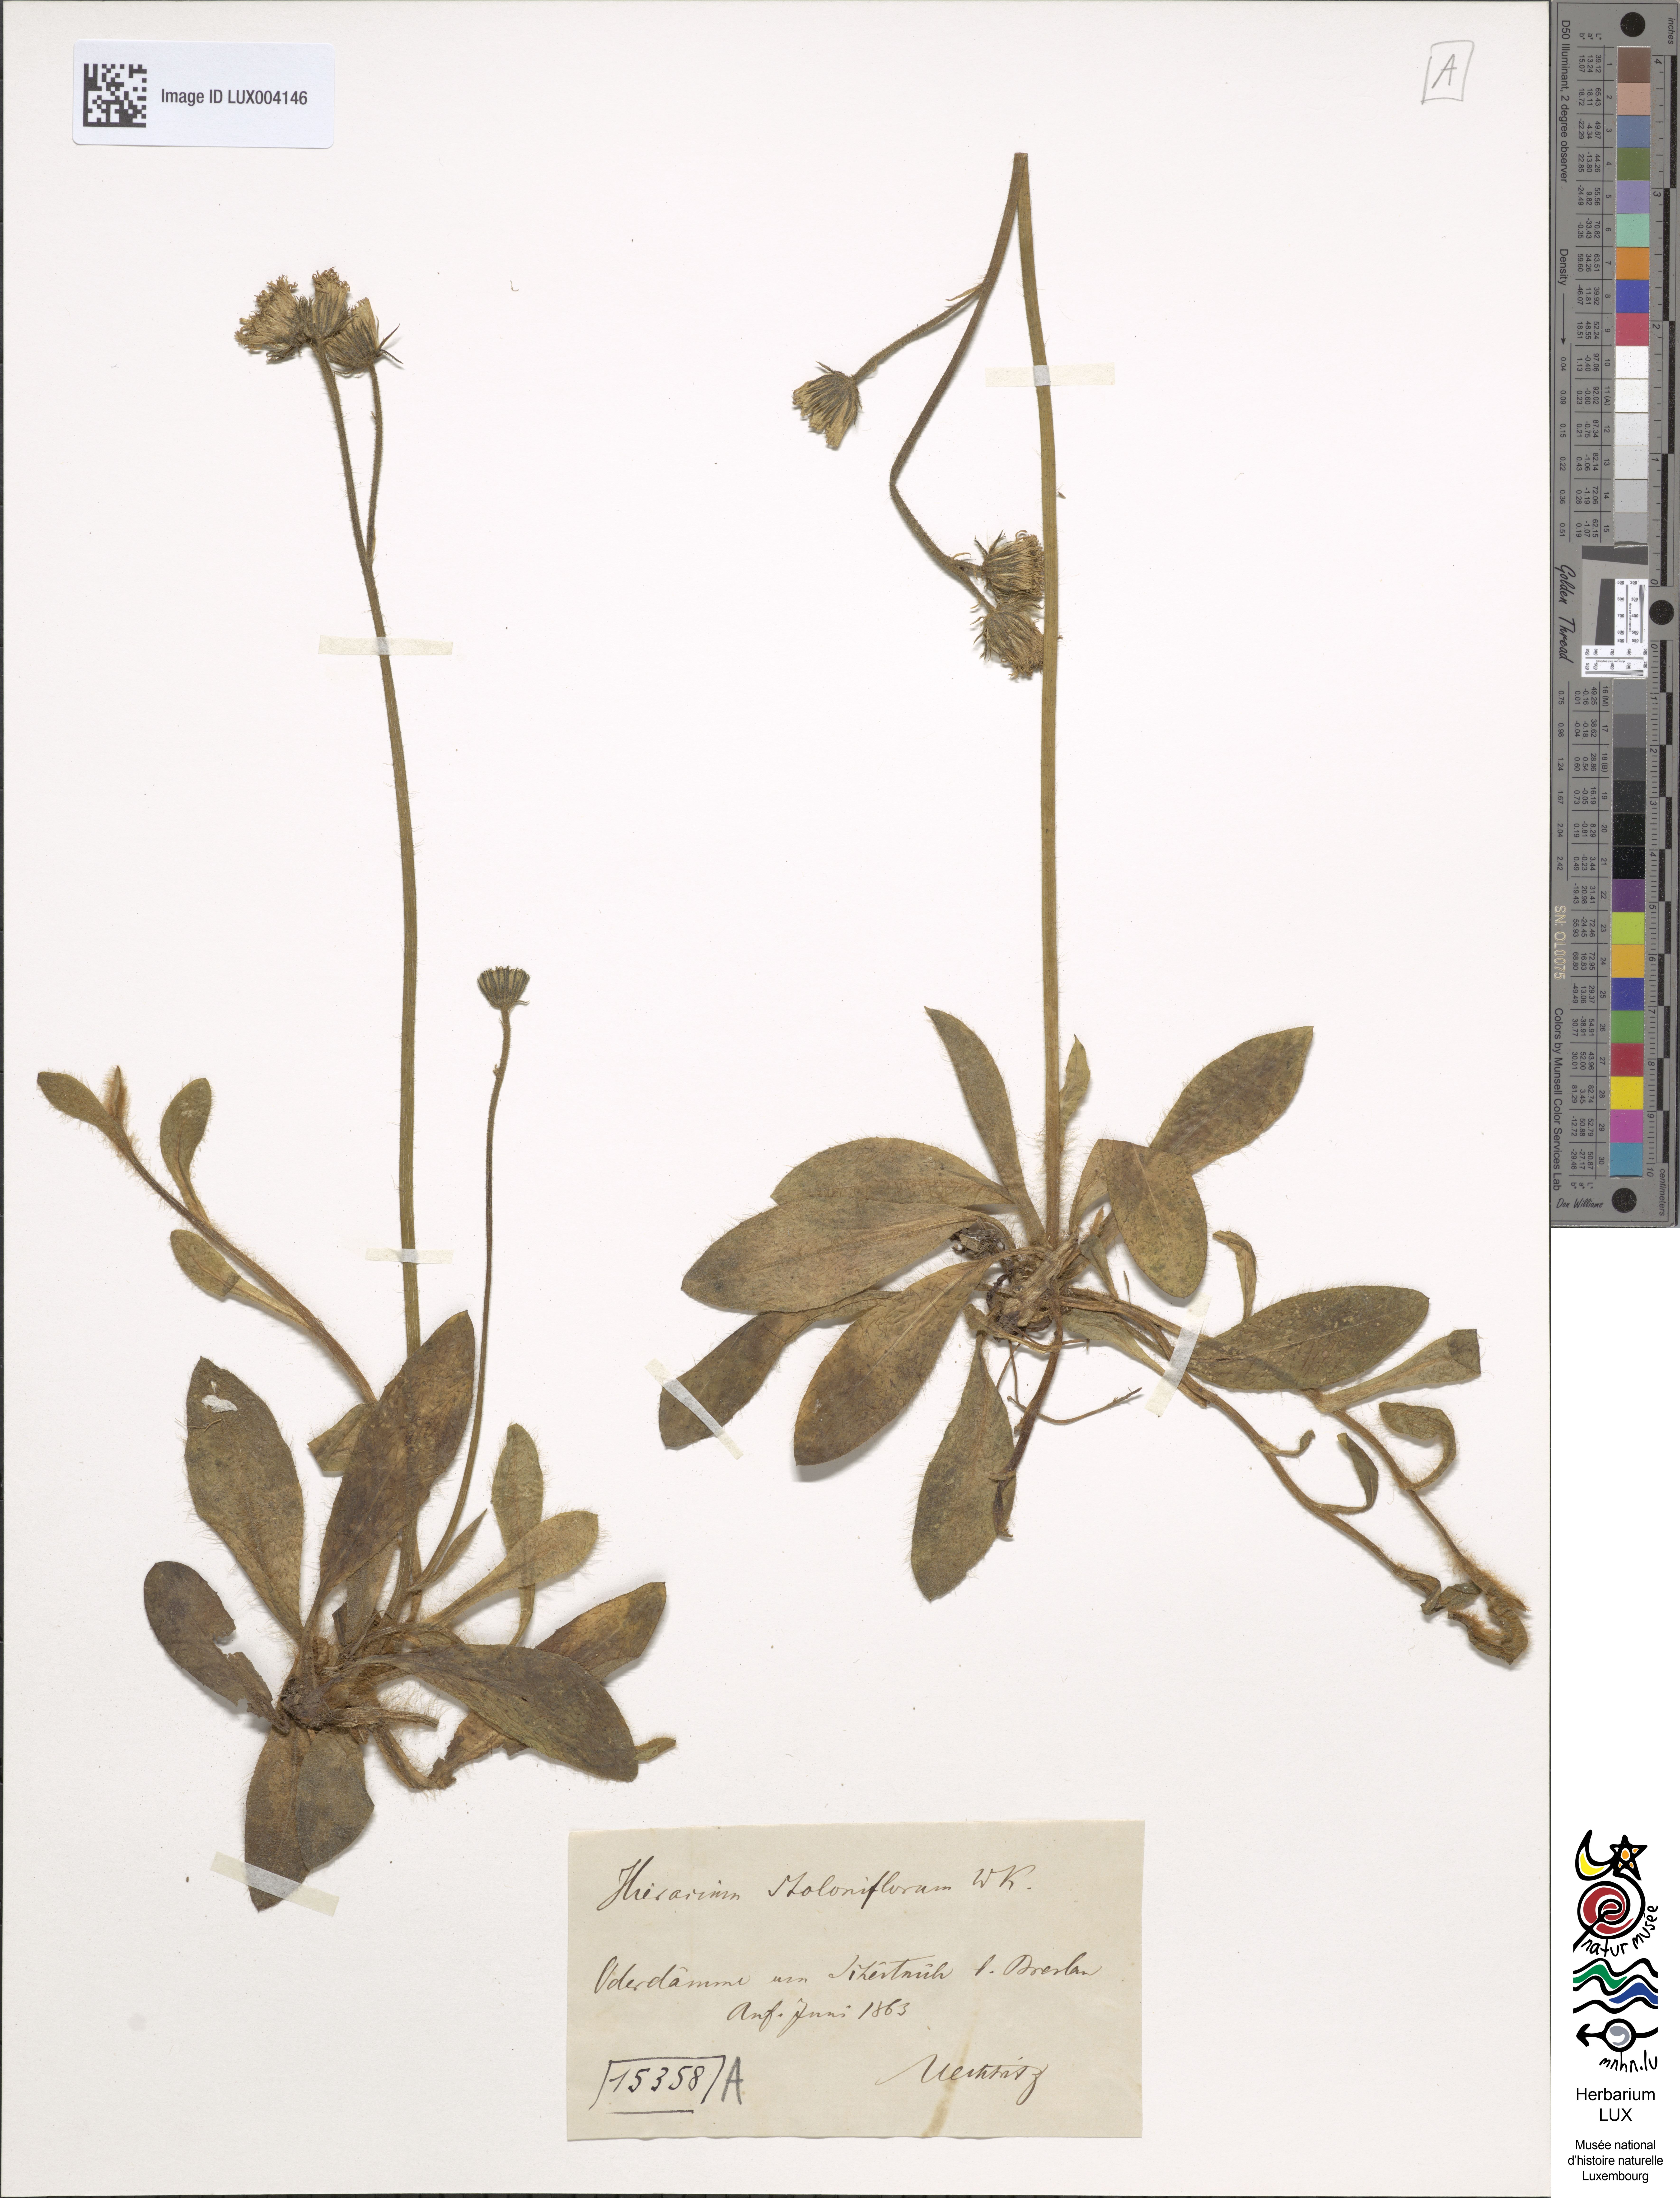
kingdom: Plantae
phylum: Tracheophyta
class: Magnoliopsida
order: Asterales
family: Asteraceae
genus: Pilosella
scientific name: Pilosella stoloniflora
